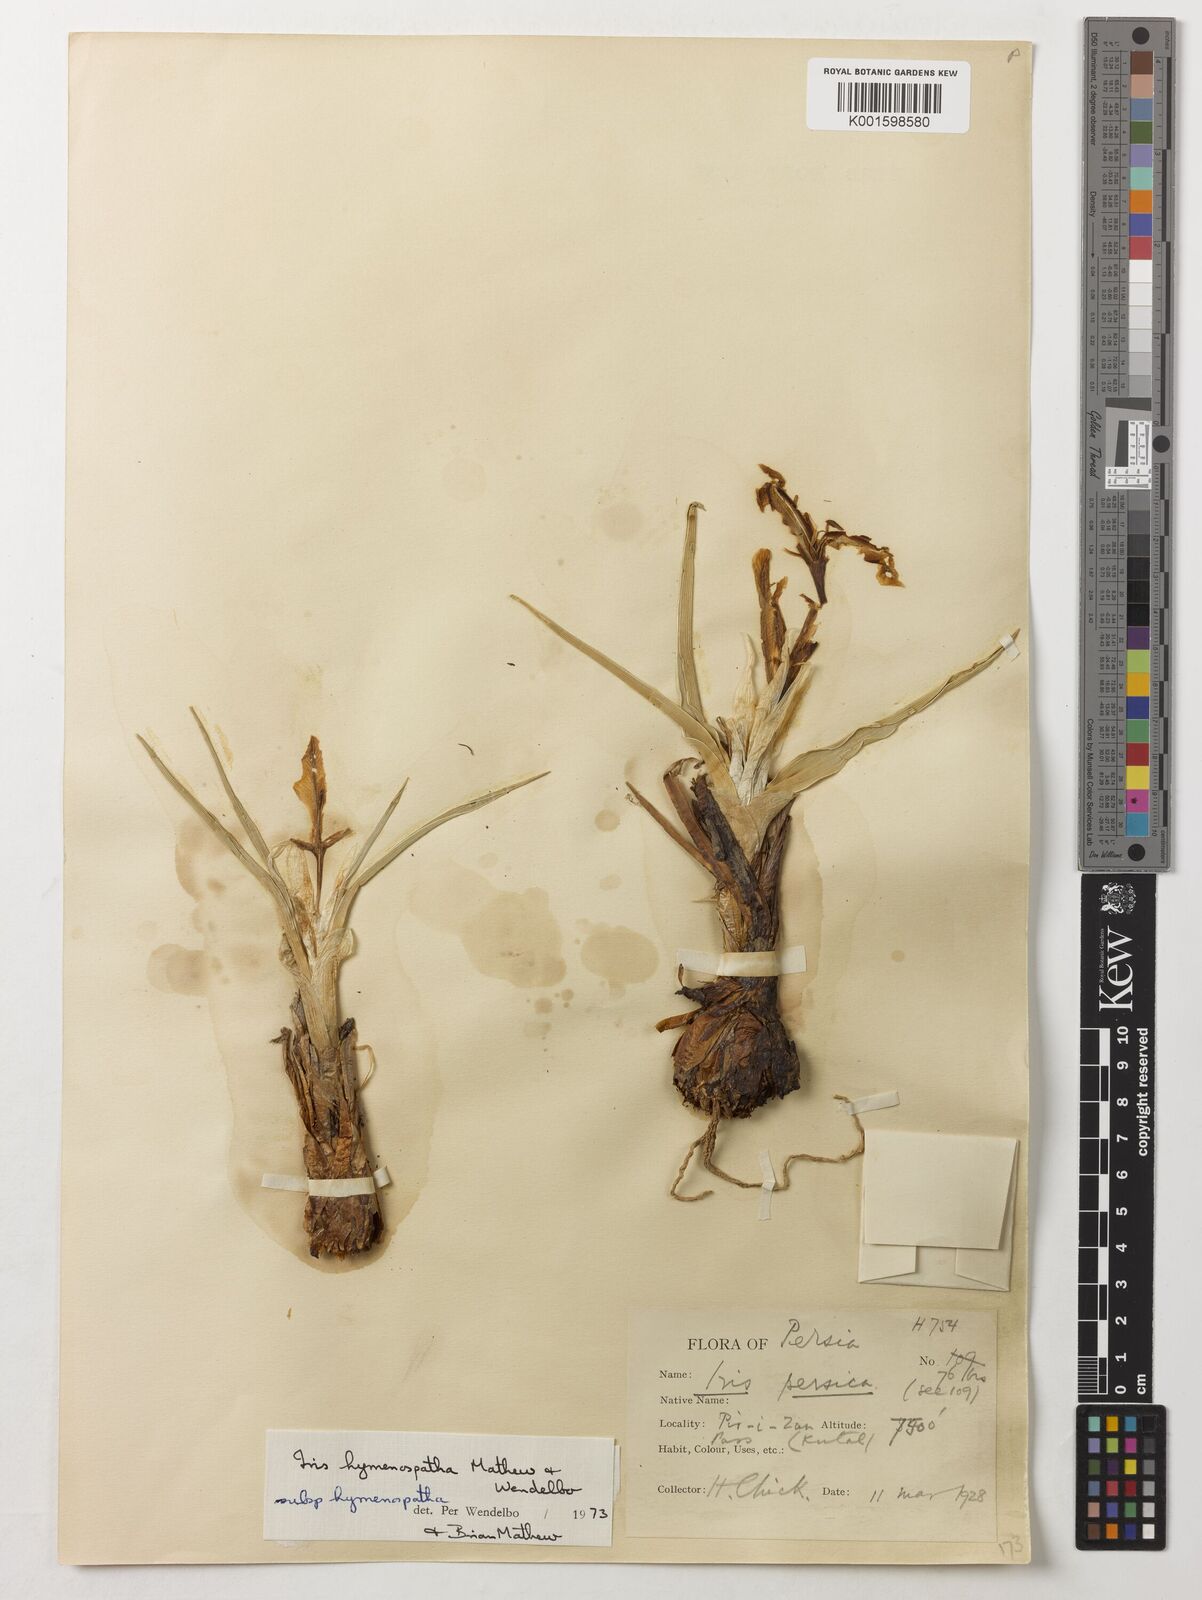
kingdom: Plantae
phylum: Tracheophyta
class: Liliopsida
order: Asparagales
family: Iridaceae
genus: Iris
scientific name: Iris hymenospatha
